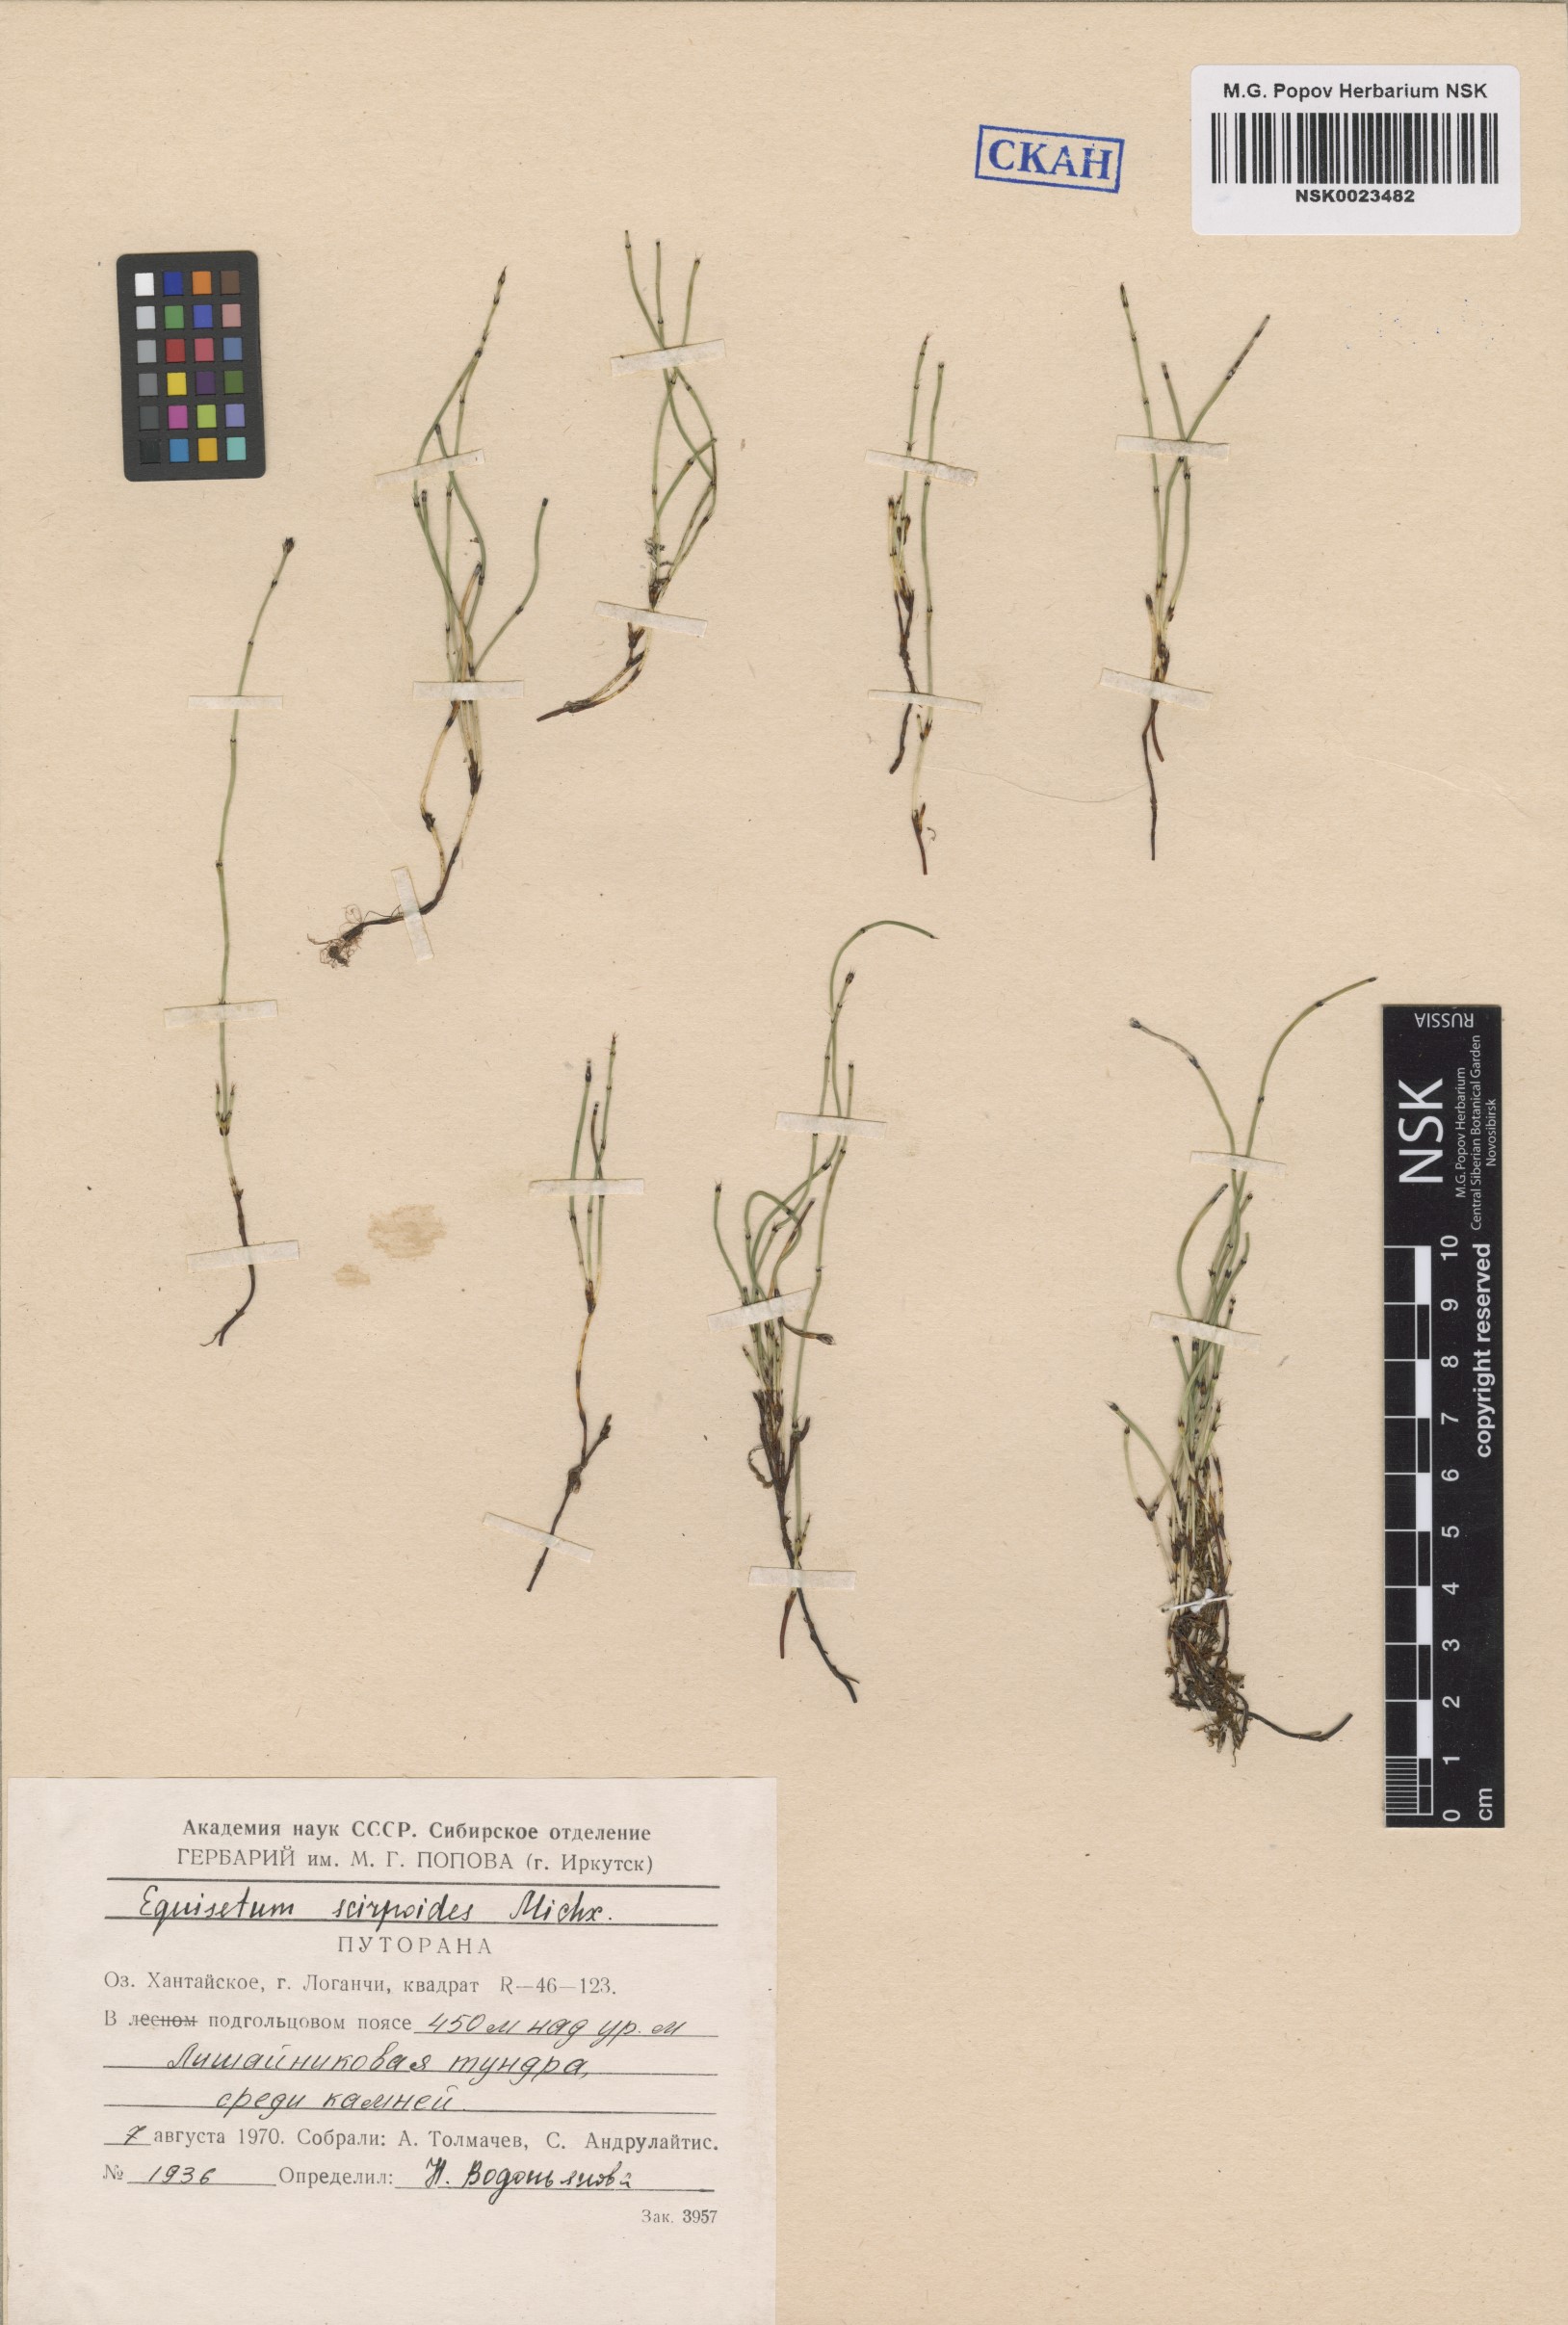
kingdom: Plantae
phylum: Tracheophyta
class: Polypodiopsida
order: Equisetales
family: Equisetaceae
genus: Equisetum
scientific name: Equisetum scirpoides
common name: Delicate horsetail
